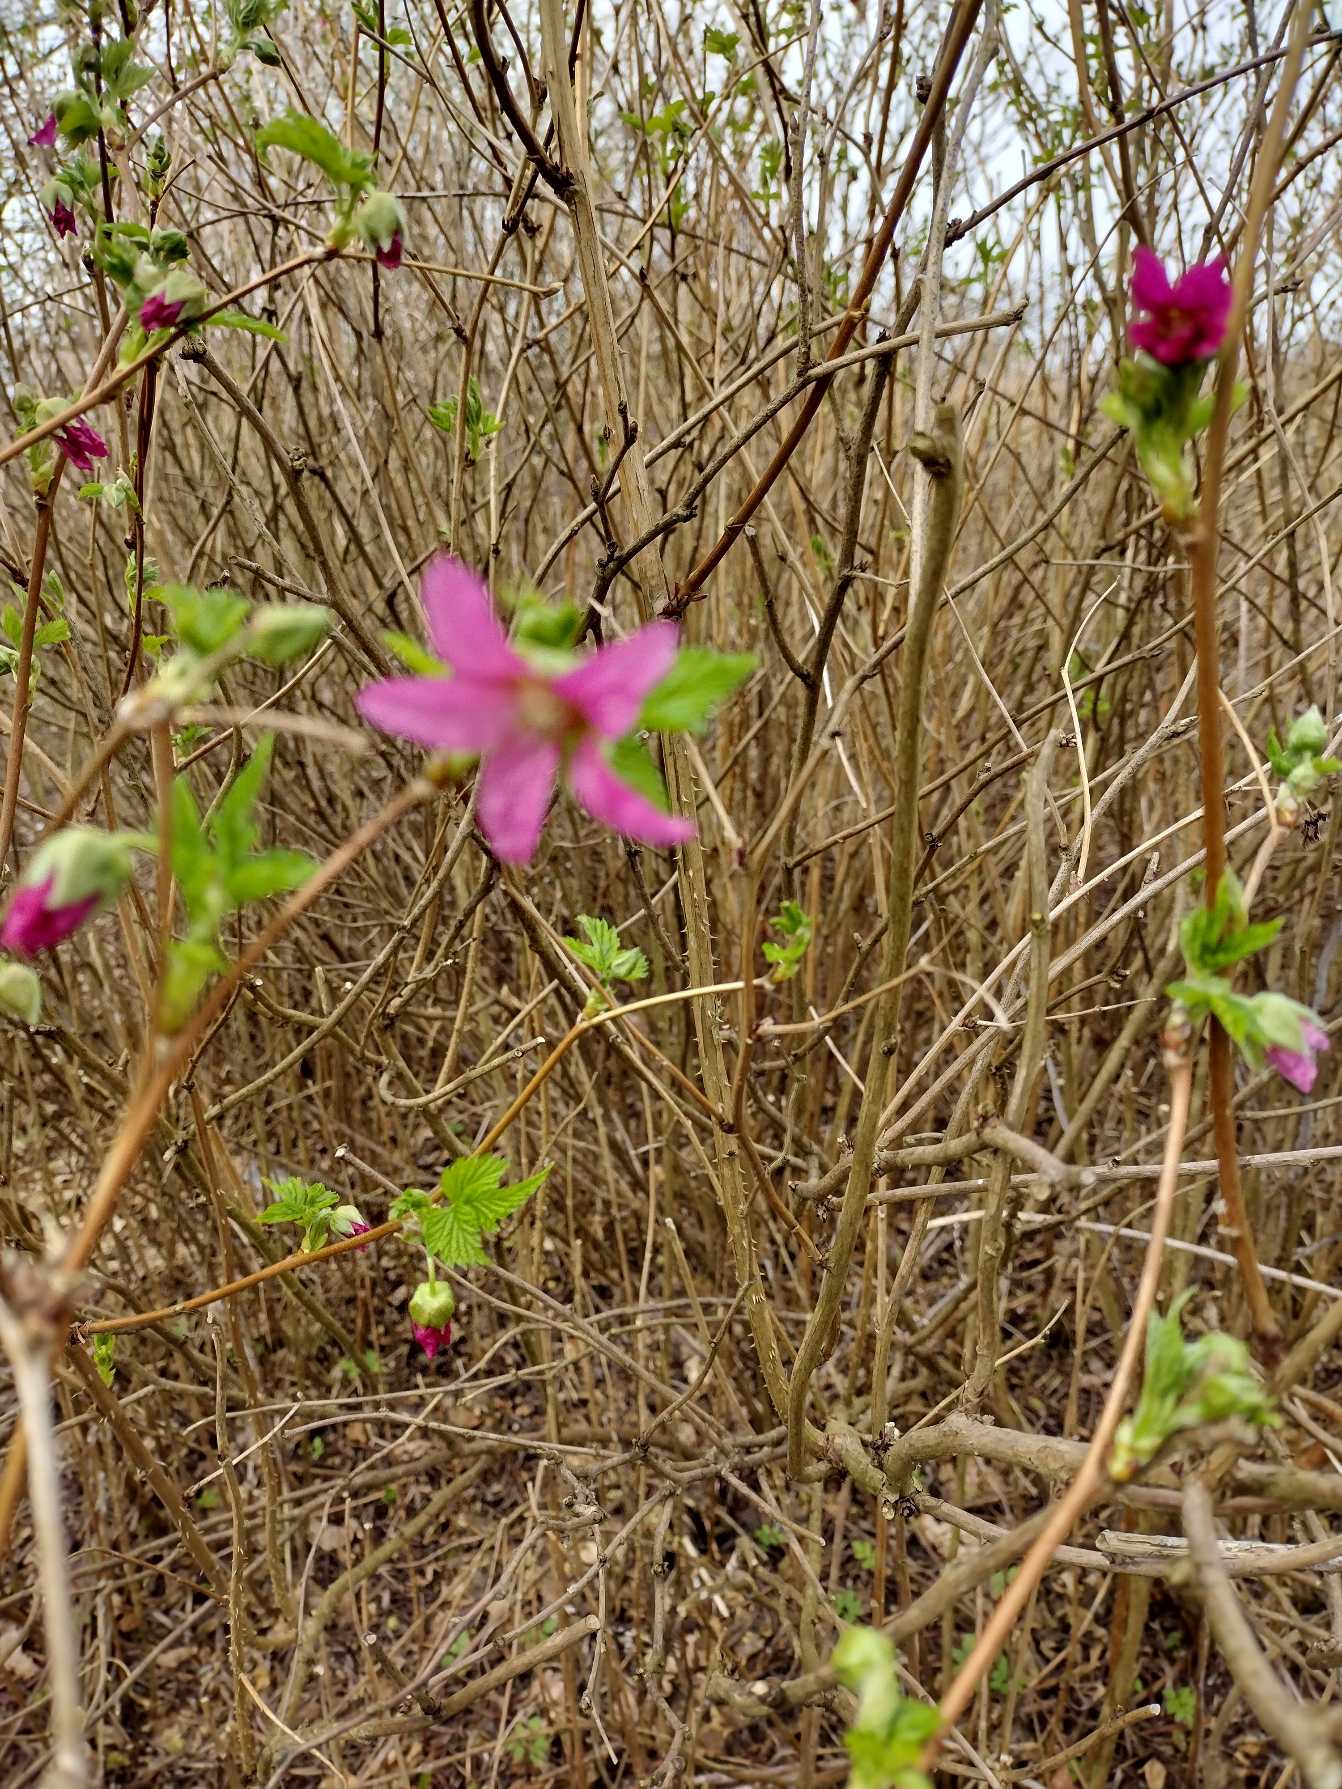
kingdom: Plantae
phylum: Tracheophyta
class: Magnoliopsida
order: Rosales
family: Rosaceae
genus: Rubus
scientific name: Rubus spectabilis
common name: Laksebær
